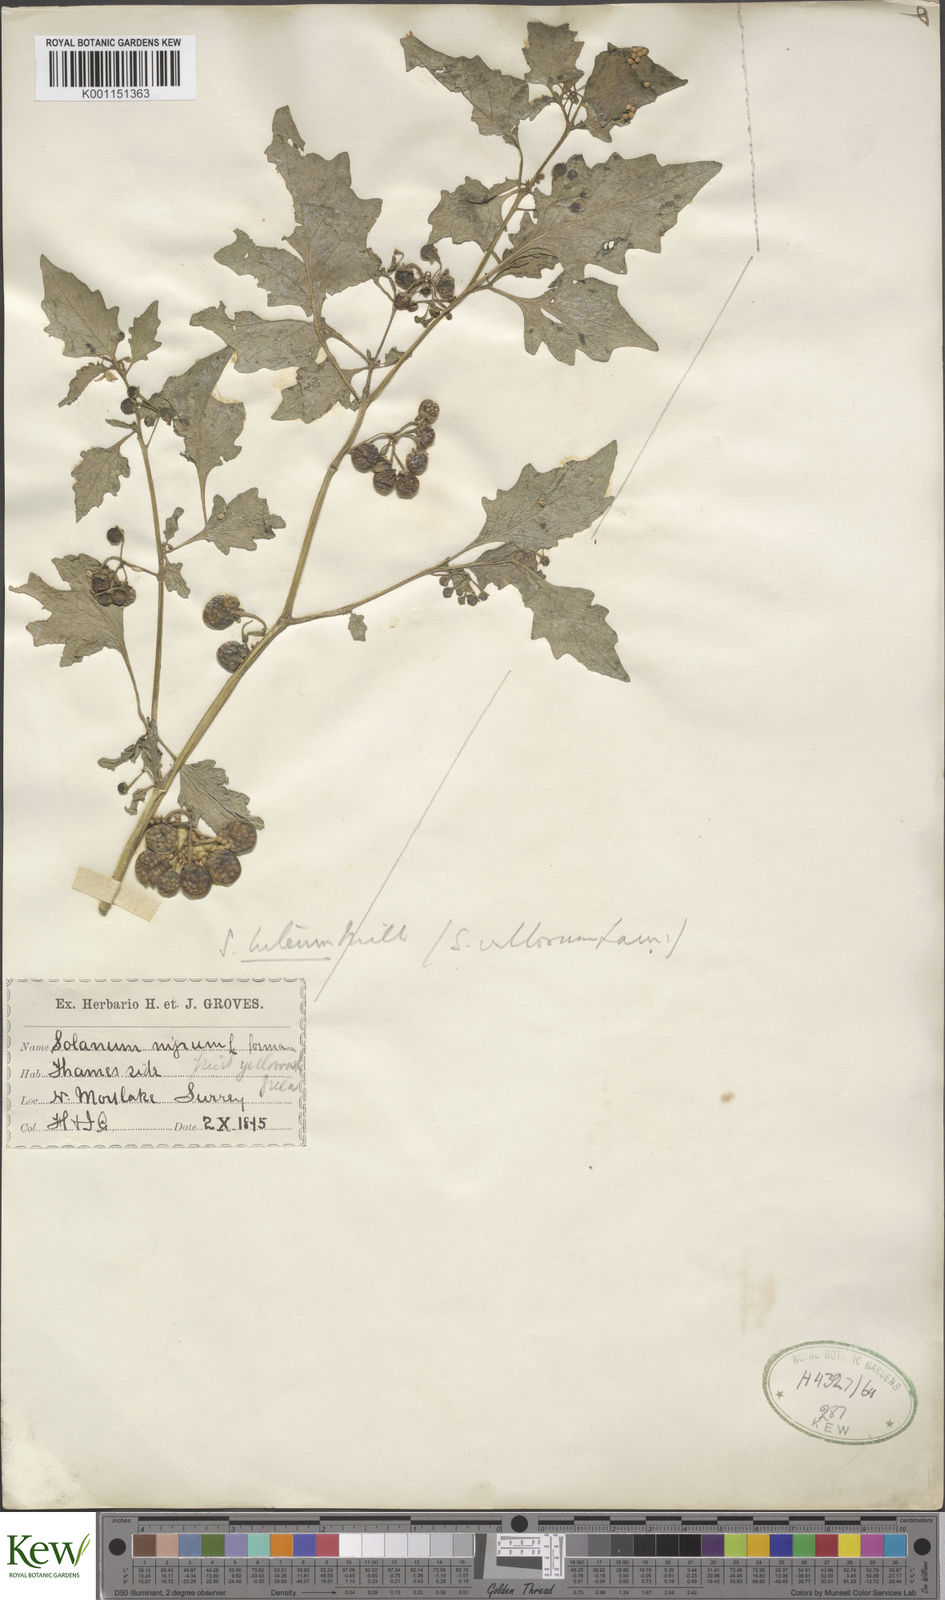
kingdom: Plantae
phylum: Tracheophyta
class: Magnoliopsida
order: Solanales
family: Solanaceae
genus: Solanum
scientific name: Solanum villosum
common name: Red nightshade
